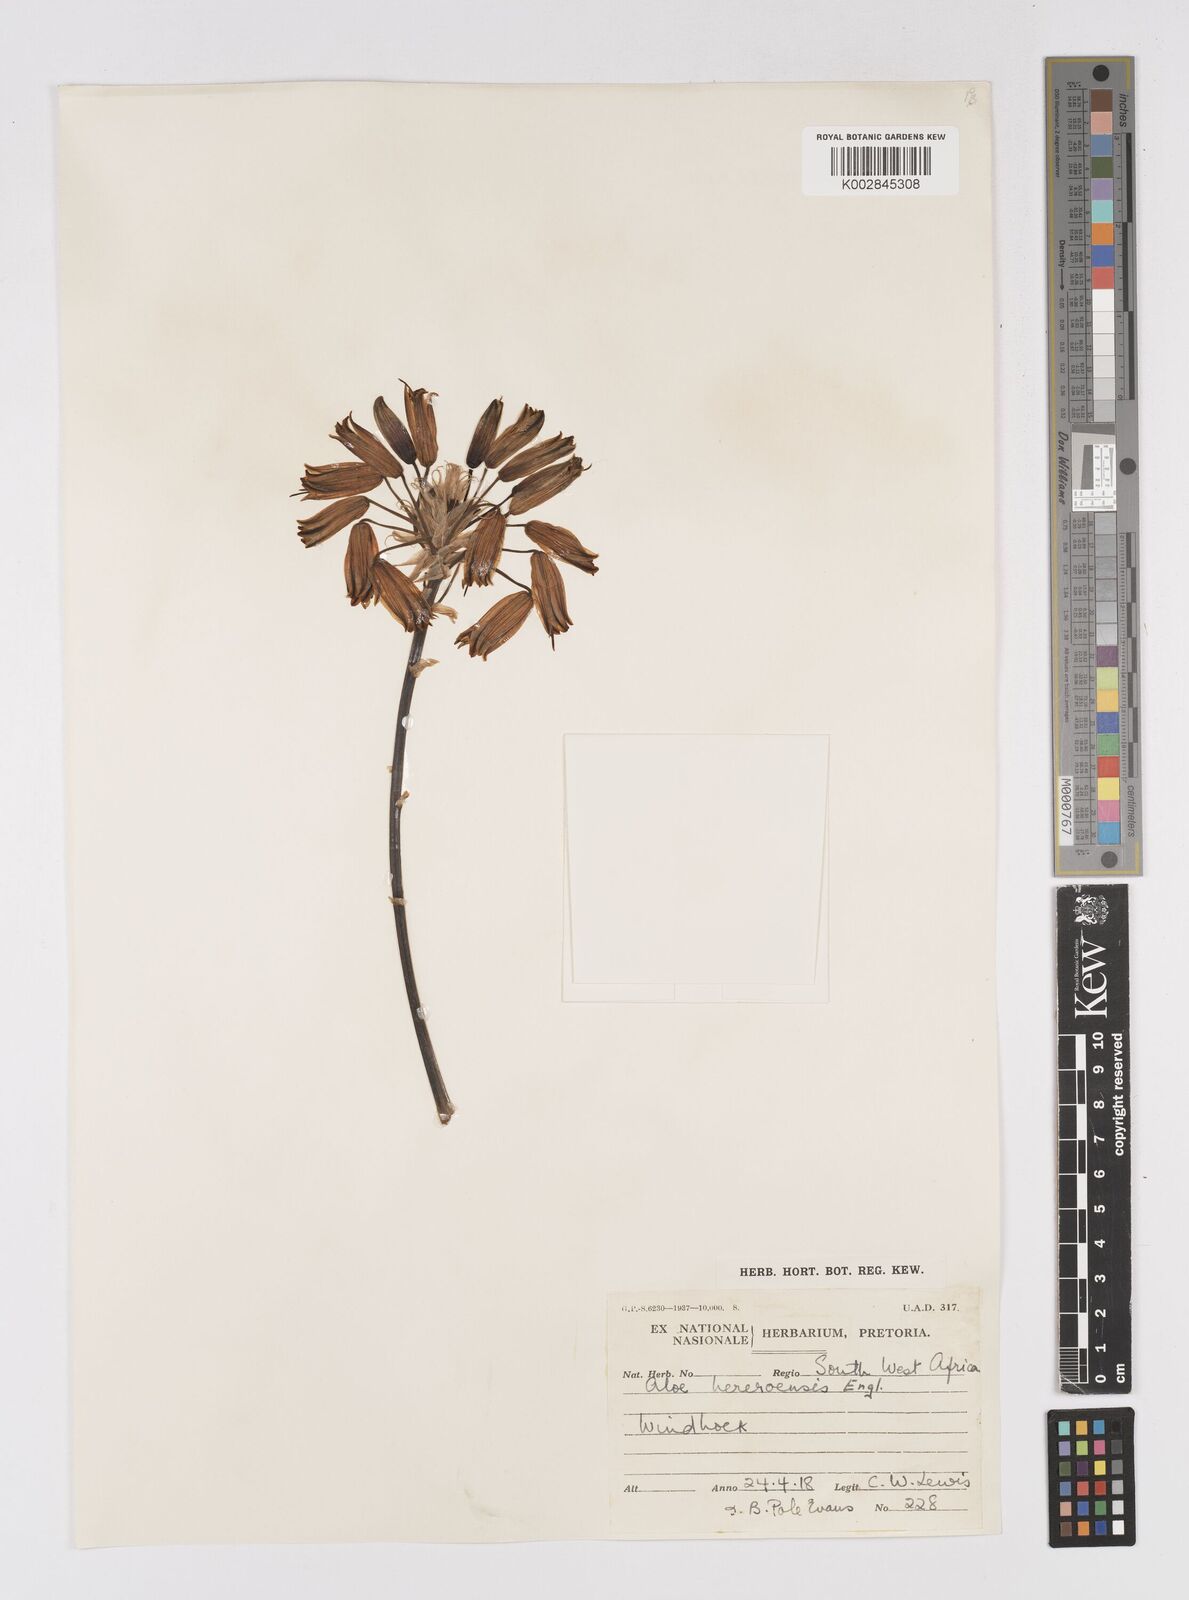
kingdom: Plantae
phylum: Tracheophyta
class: Liliopsida
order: Asparagales
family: Asphodelaceae
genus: Aloe
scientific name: Aloe hereroensis
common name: Herero aloe
